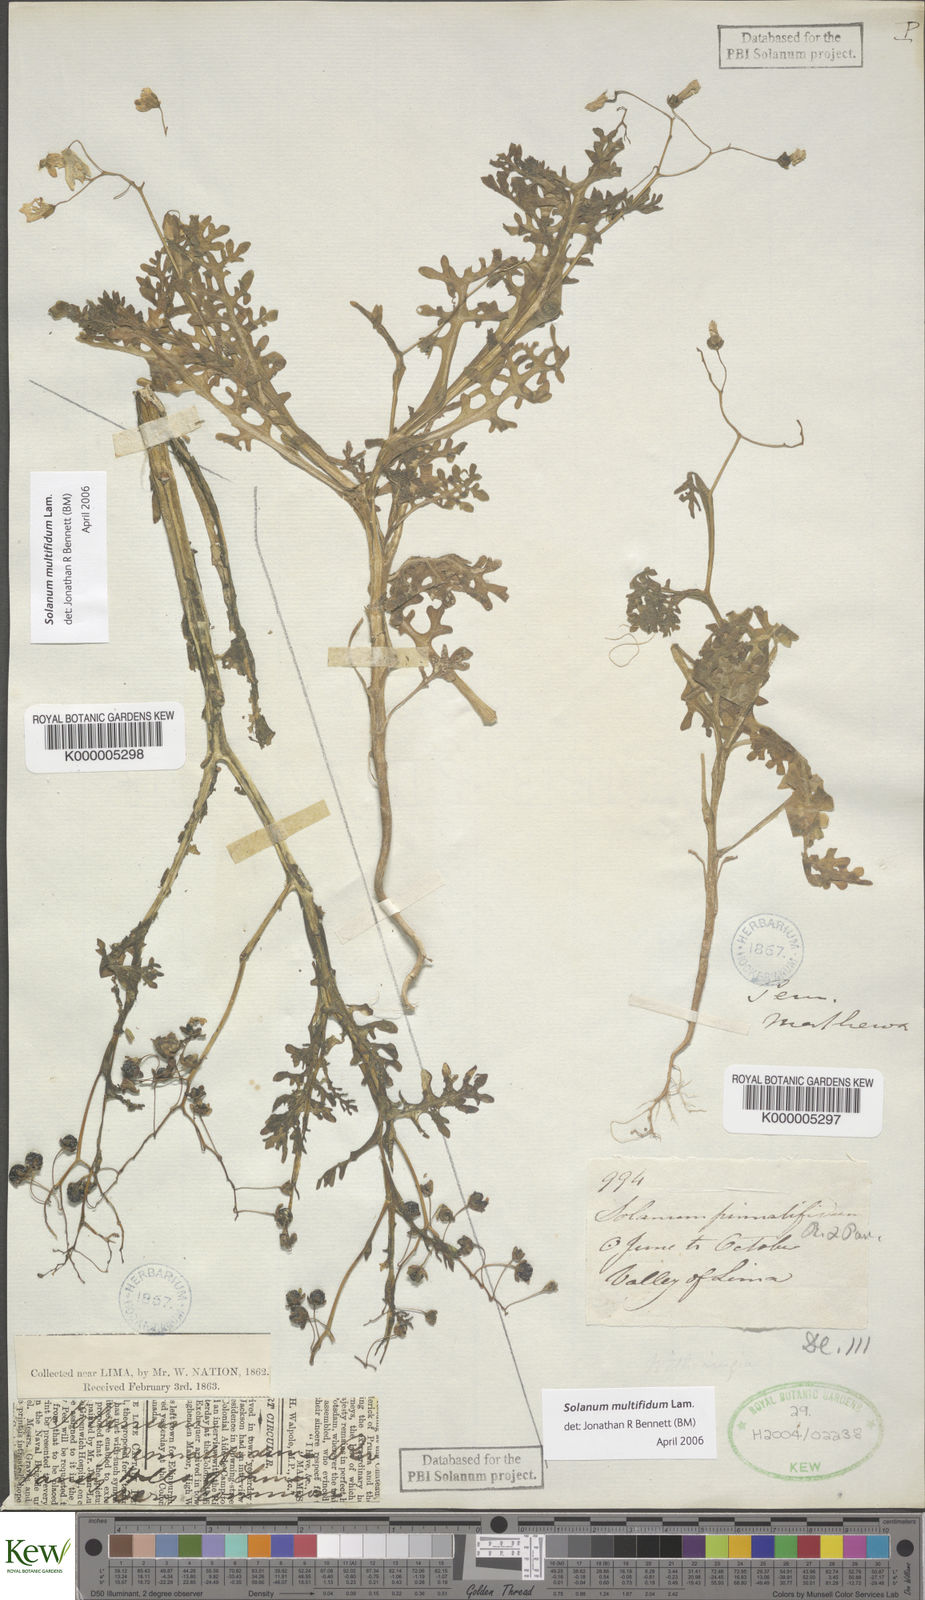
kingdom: Plantae
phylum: Tracheophyta
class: Magnoliopsida
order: Solanales
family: Solanaceae
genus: Solanum
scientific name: Solanum multifidum
